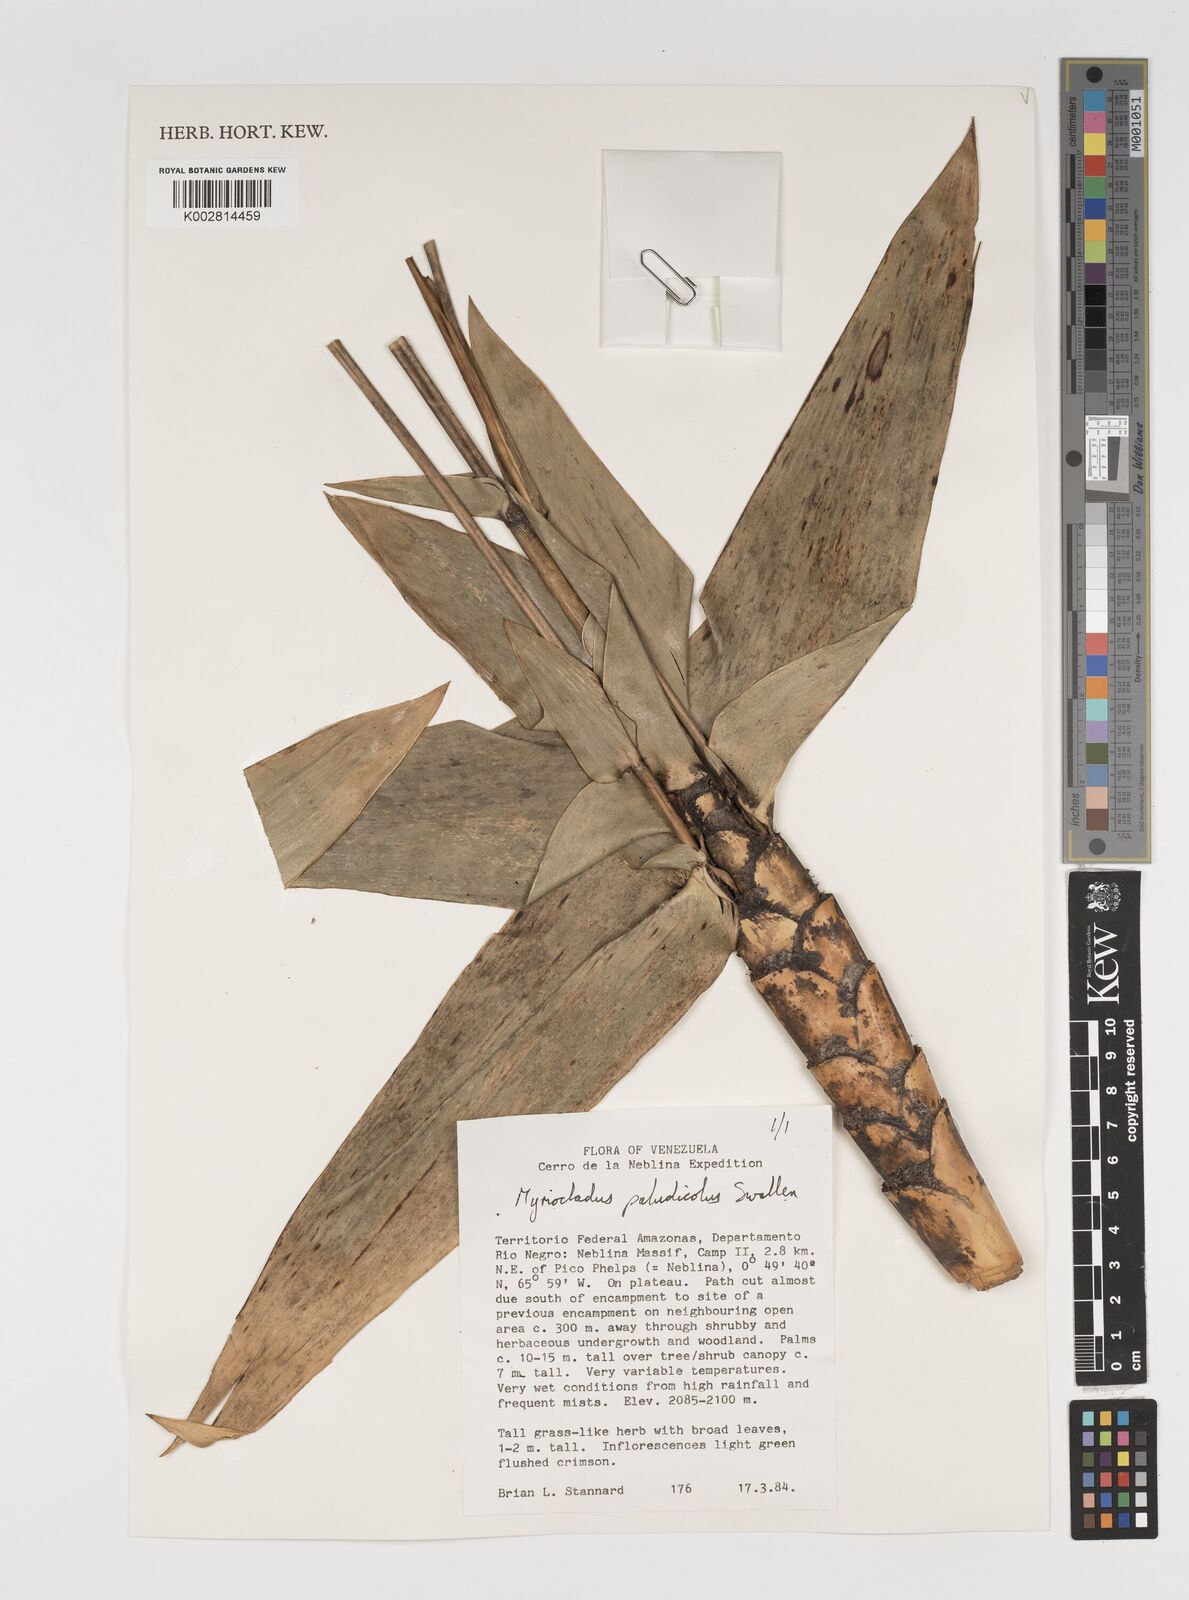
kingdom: Plantae
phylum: Tracheophyta
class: Liliopsida
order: Poales
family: Poaceae
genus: Myriocladus
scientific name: Myriocladus paludicola
